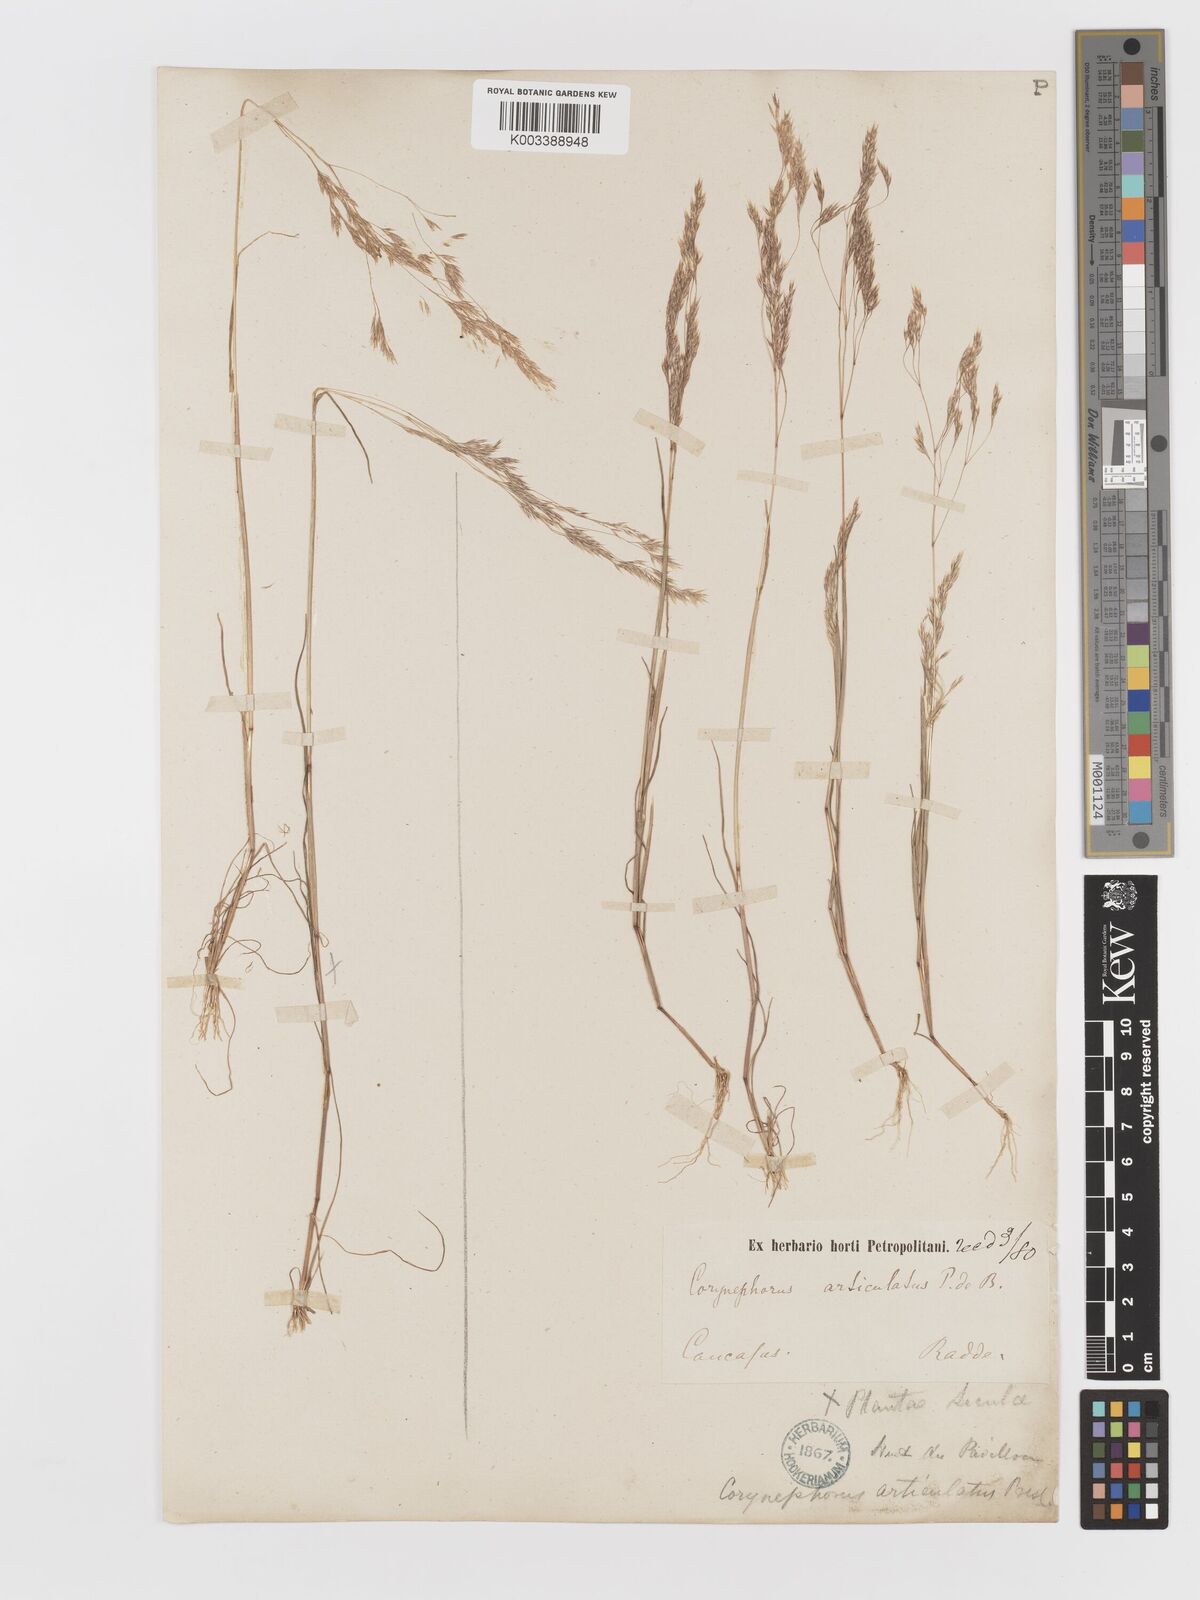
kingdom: Plantae
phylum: Tracheophyta
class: Liliopsida
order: Poales
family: Poaceae
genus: Corynephorus
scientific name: Corynephorus divaricatus
